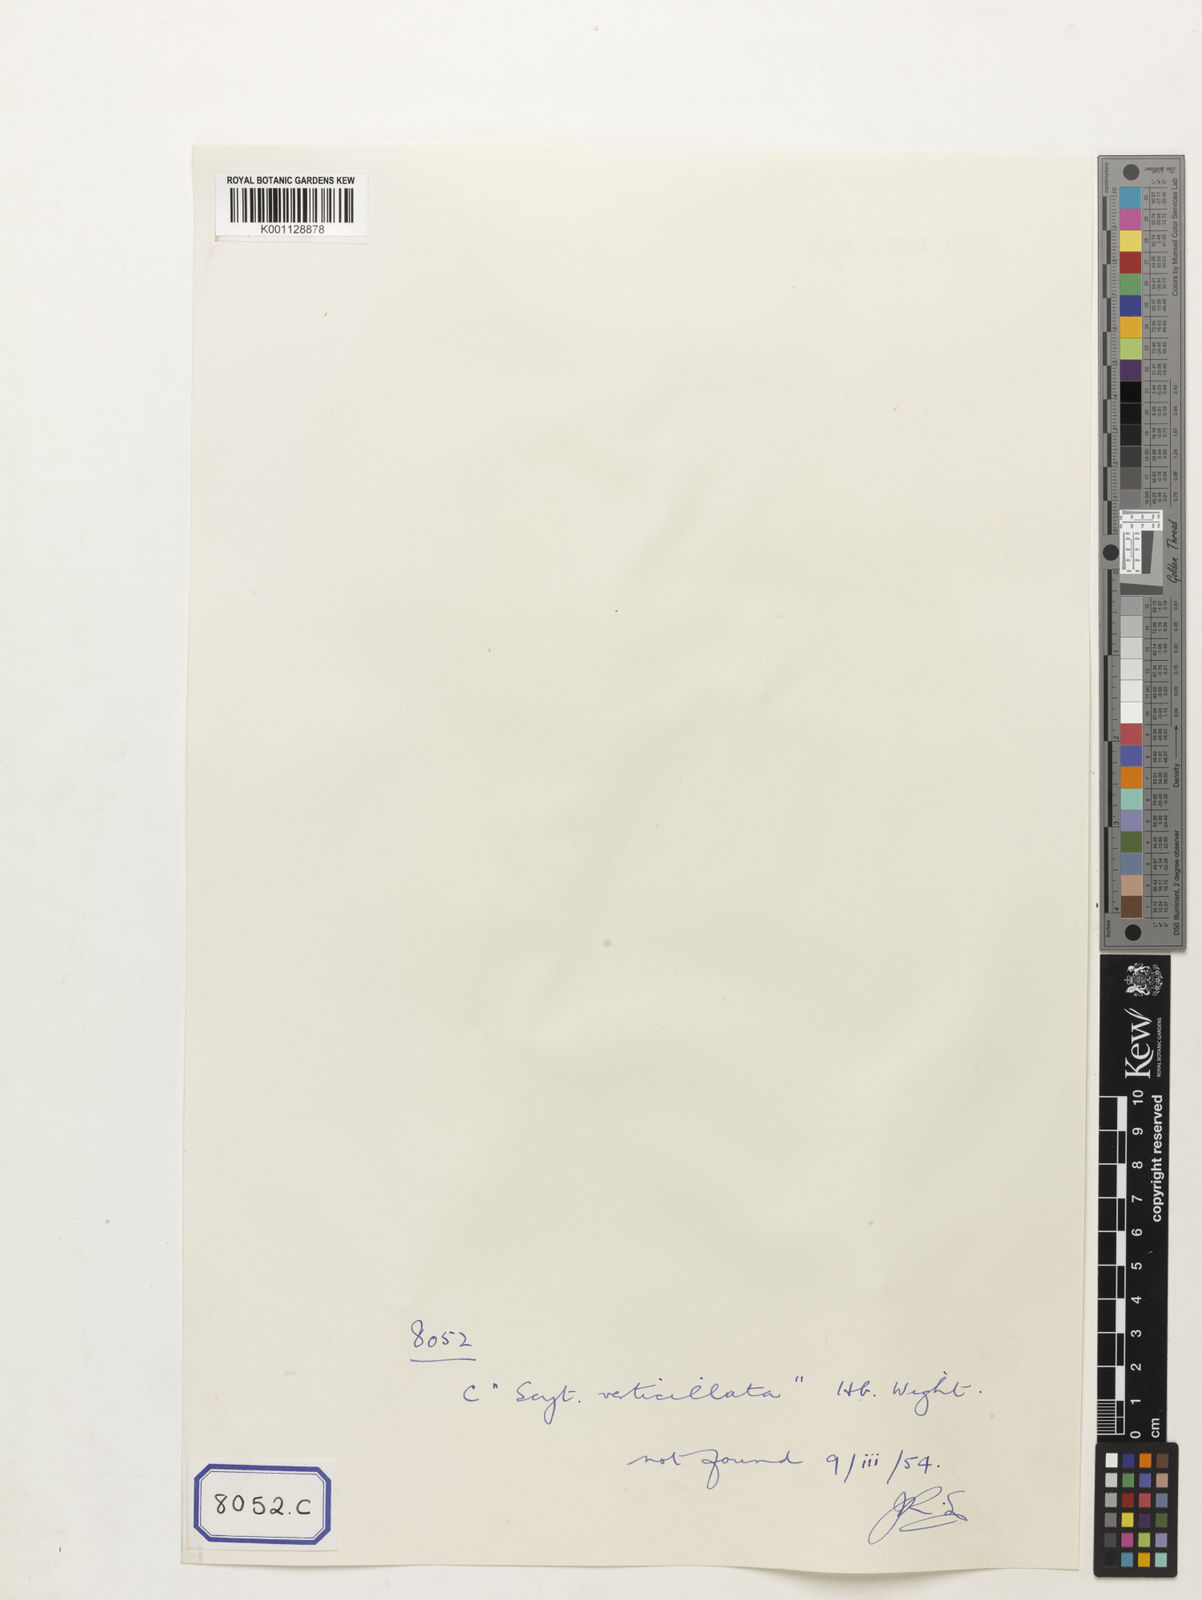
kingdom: Plantae
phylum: Tracheophyta
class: Magnoliopsida
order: Sapindales
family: Sapindaceae
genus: Lepisanthes
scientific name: Lepisanthes senegalensis
